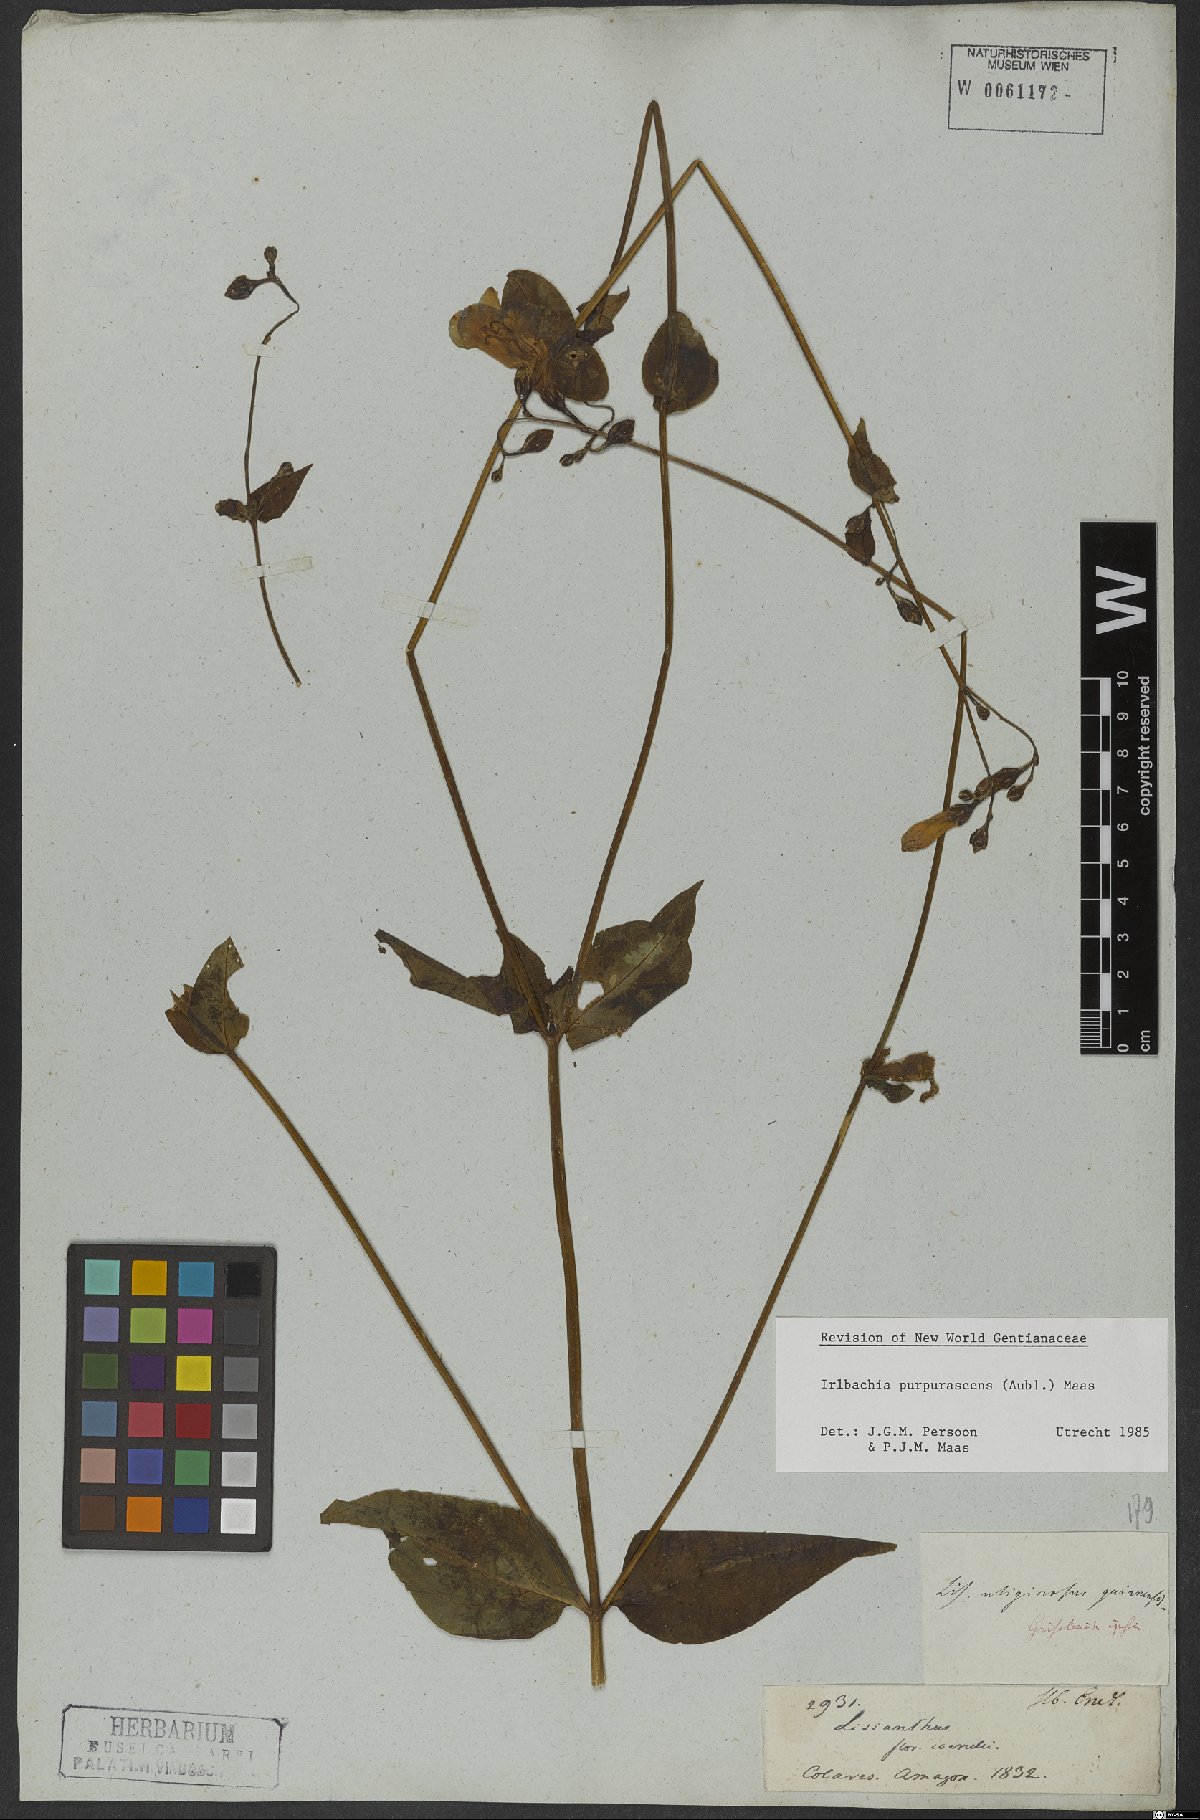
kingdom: Plantae
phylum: Tracheophyta
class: Magnoliopsida
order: Gentianales
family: Gentianaceae
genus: Chelonanthus
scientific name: Chelonanthus purpurascens
